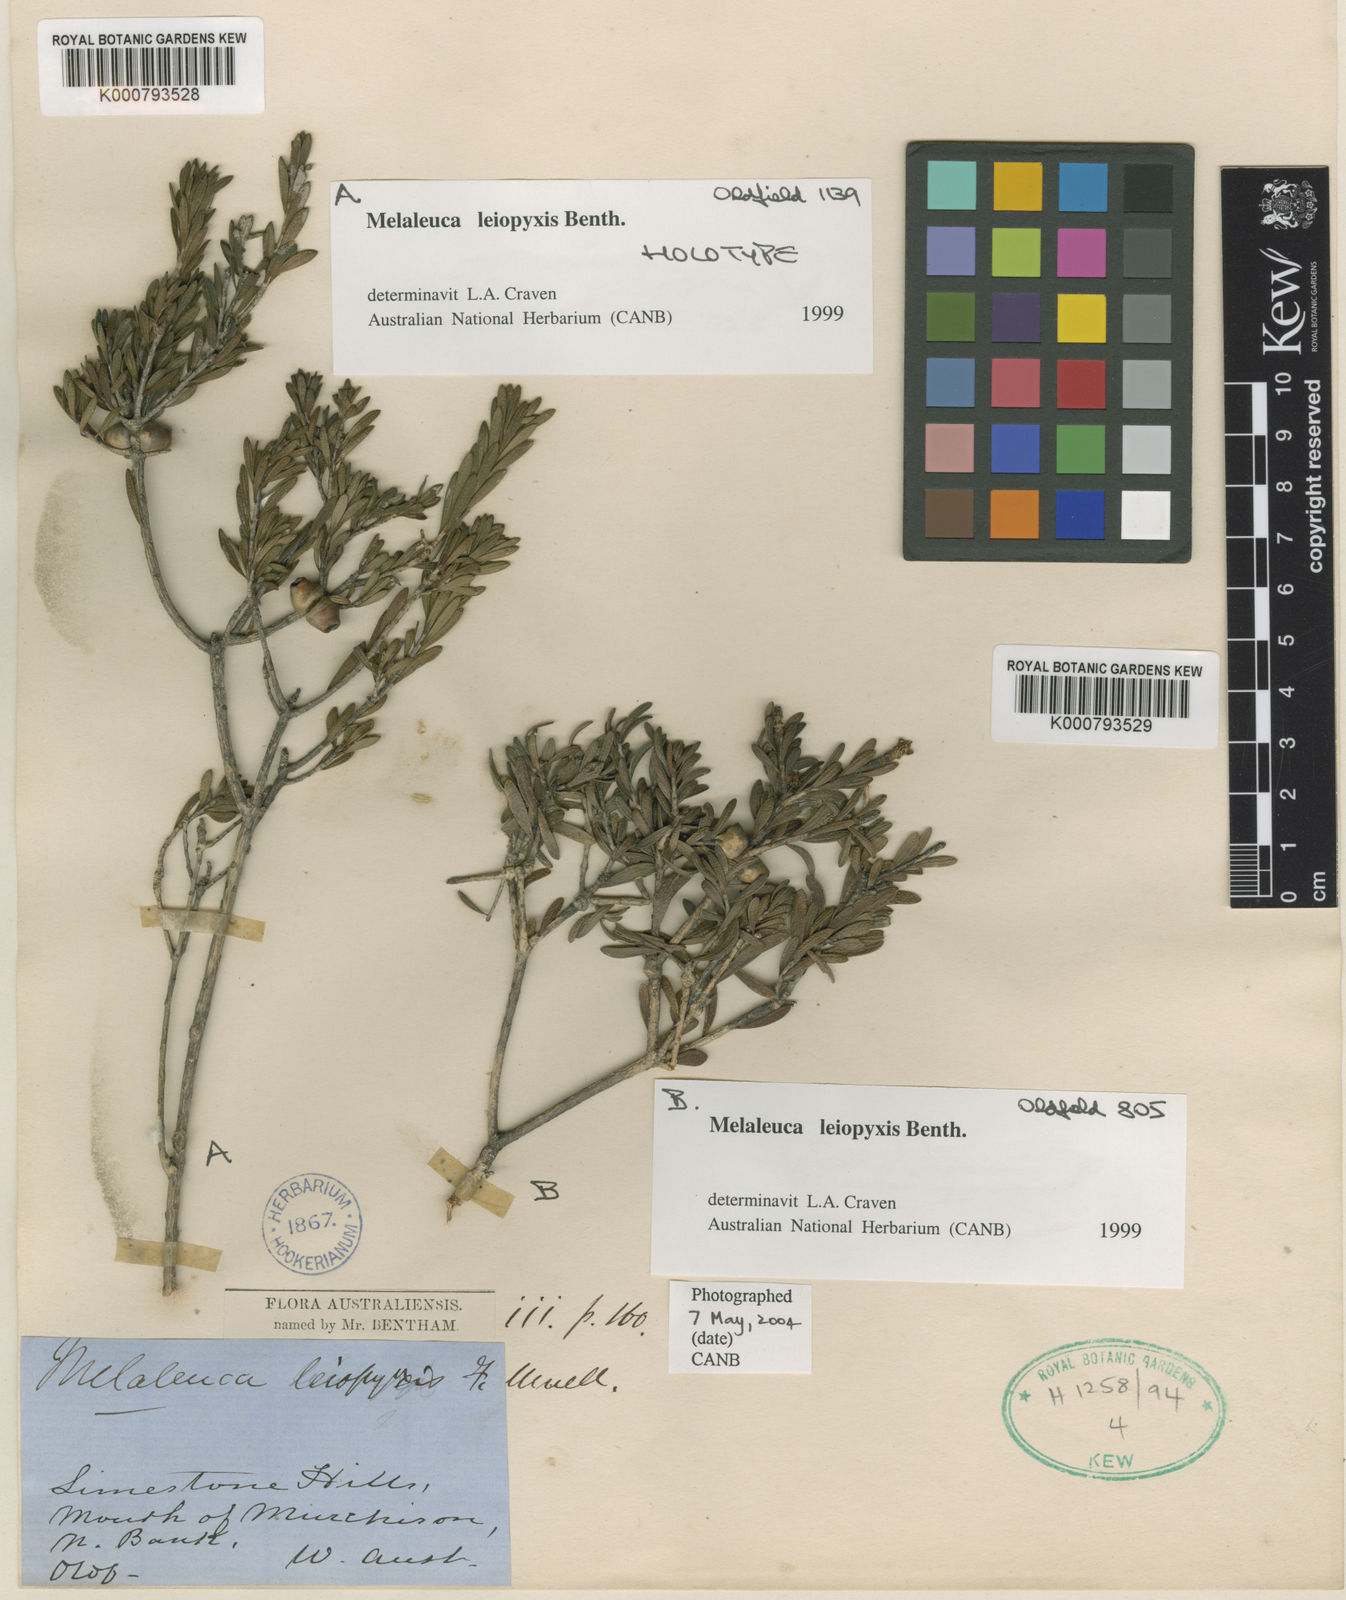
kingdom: Plantae
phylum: Tracheophyta
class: Magnoliopsida
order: Myrtales
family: Myrtaceae
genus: Melaleuca
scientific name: Melaleuca leiopyxis
